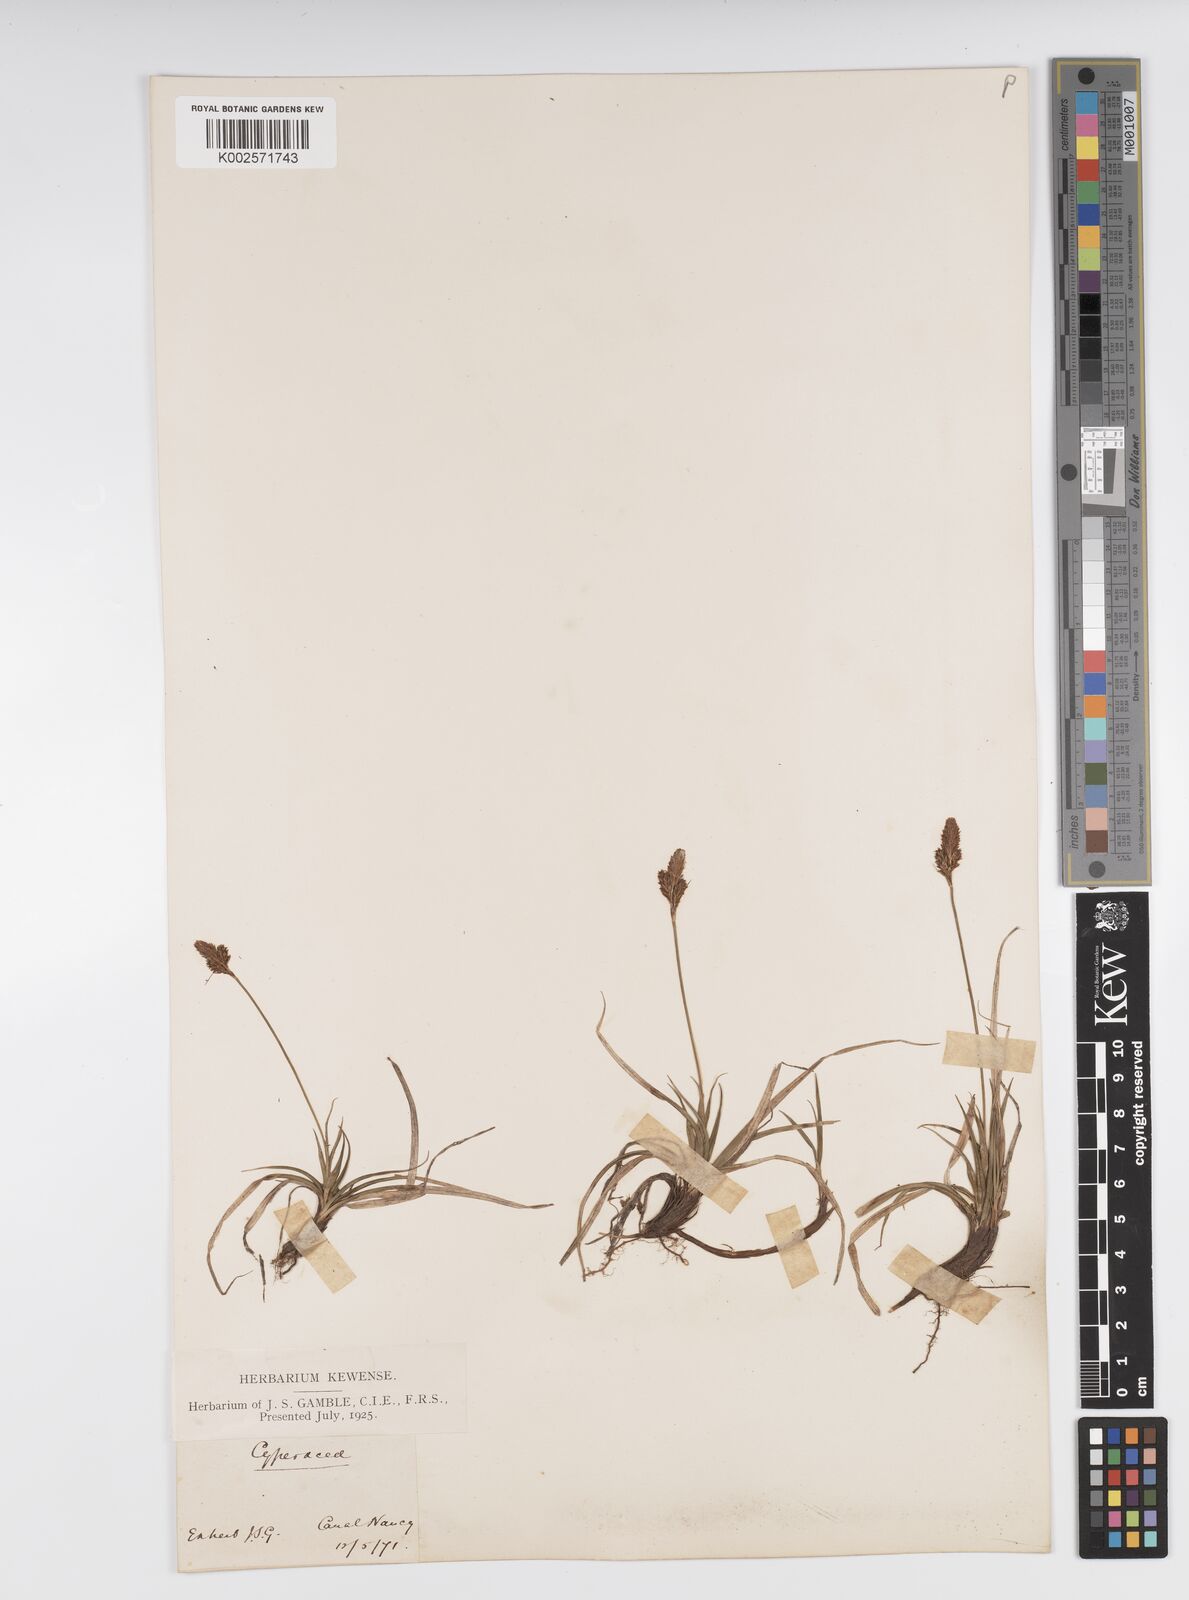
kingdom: Plantae
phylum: Tracheophyta
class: Liliopsida
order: Poales
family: Cyperaceae
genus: Carex
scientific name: Carex caryophyllea
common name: Spring sedge
